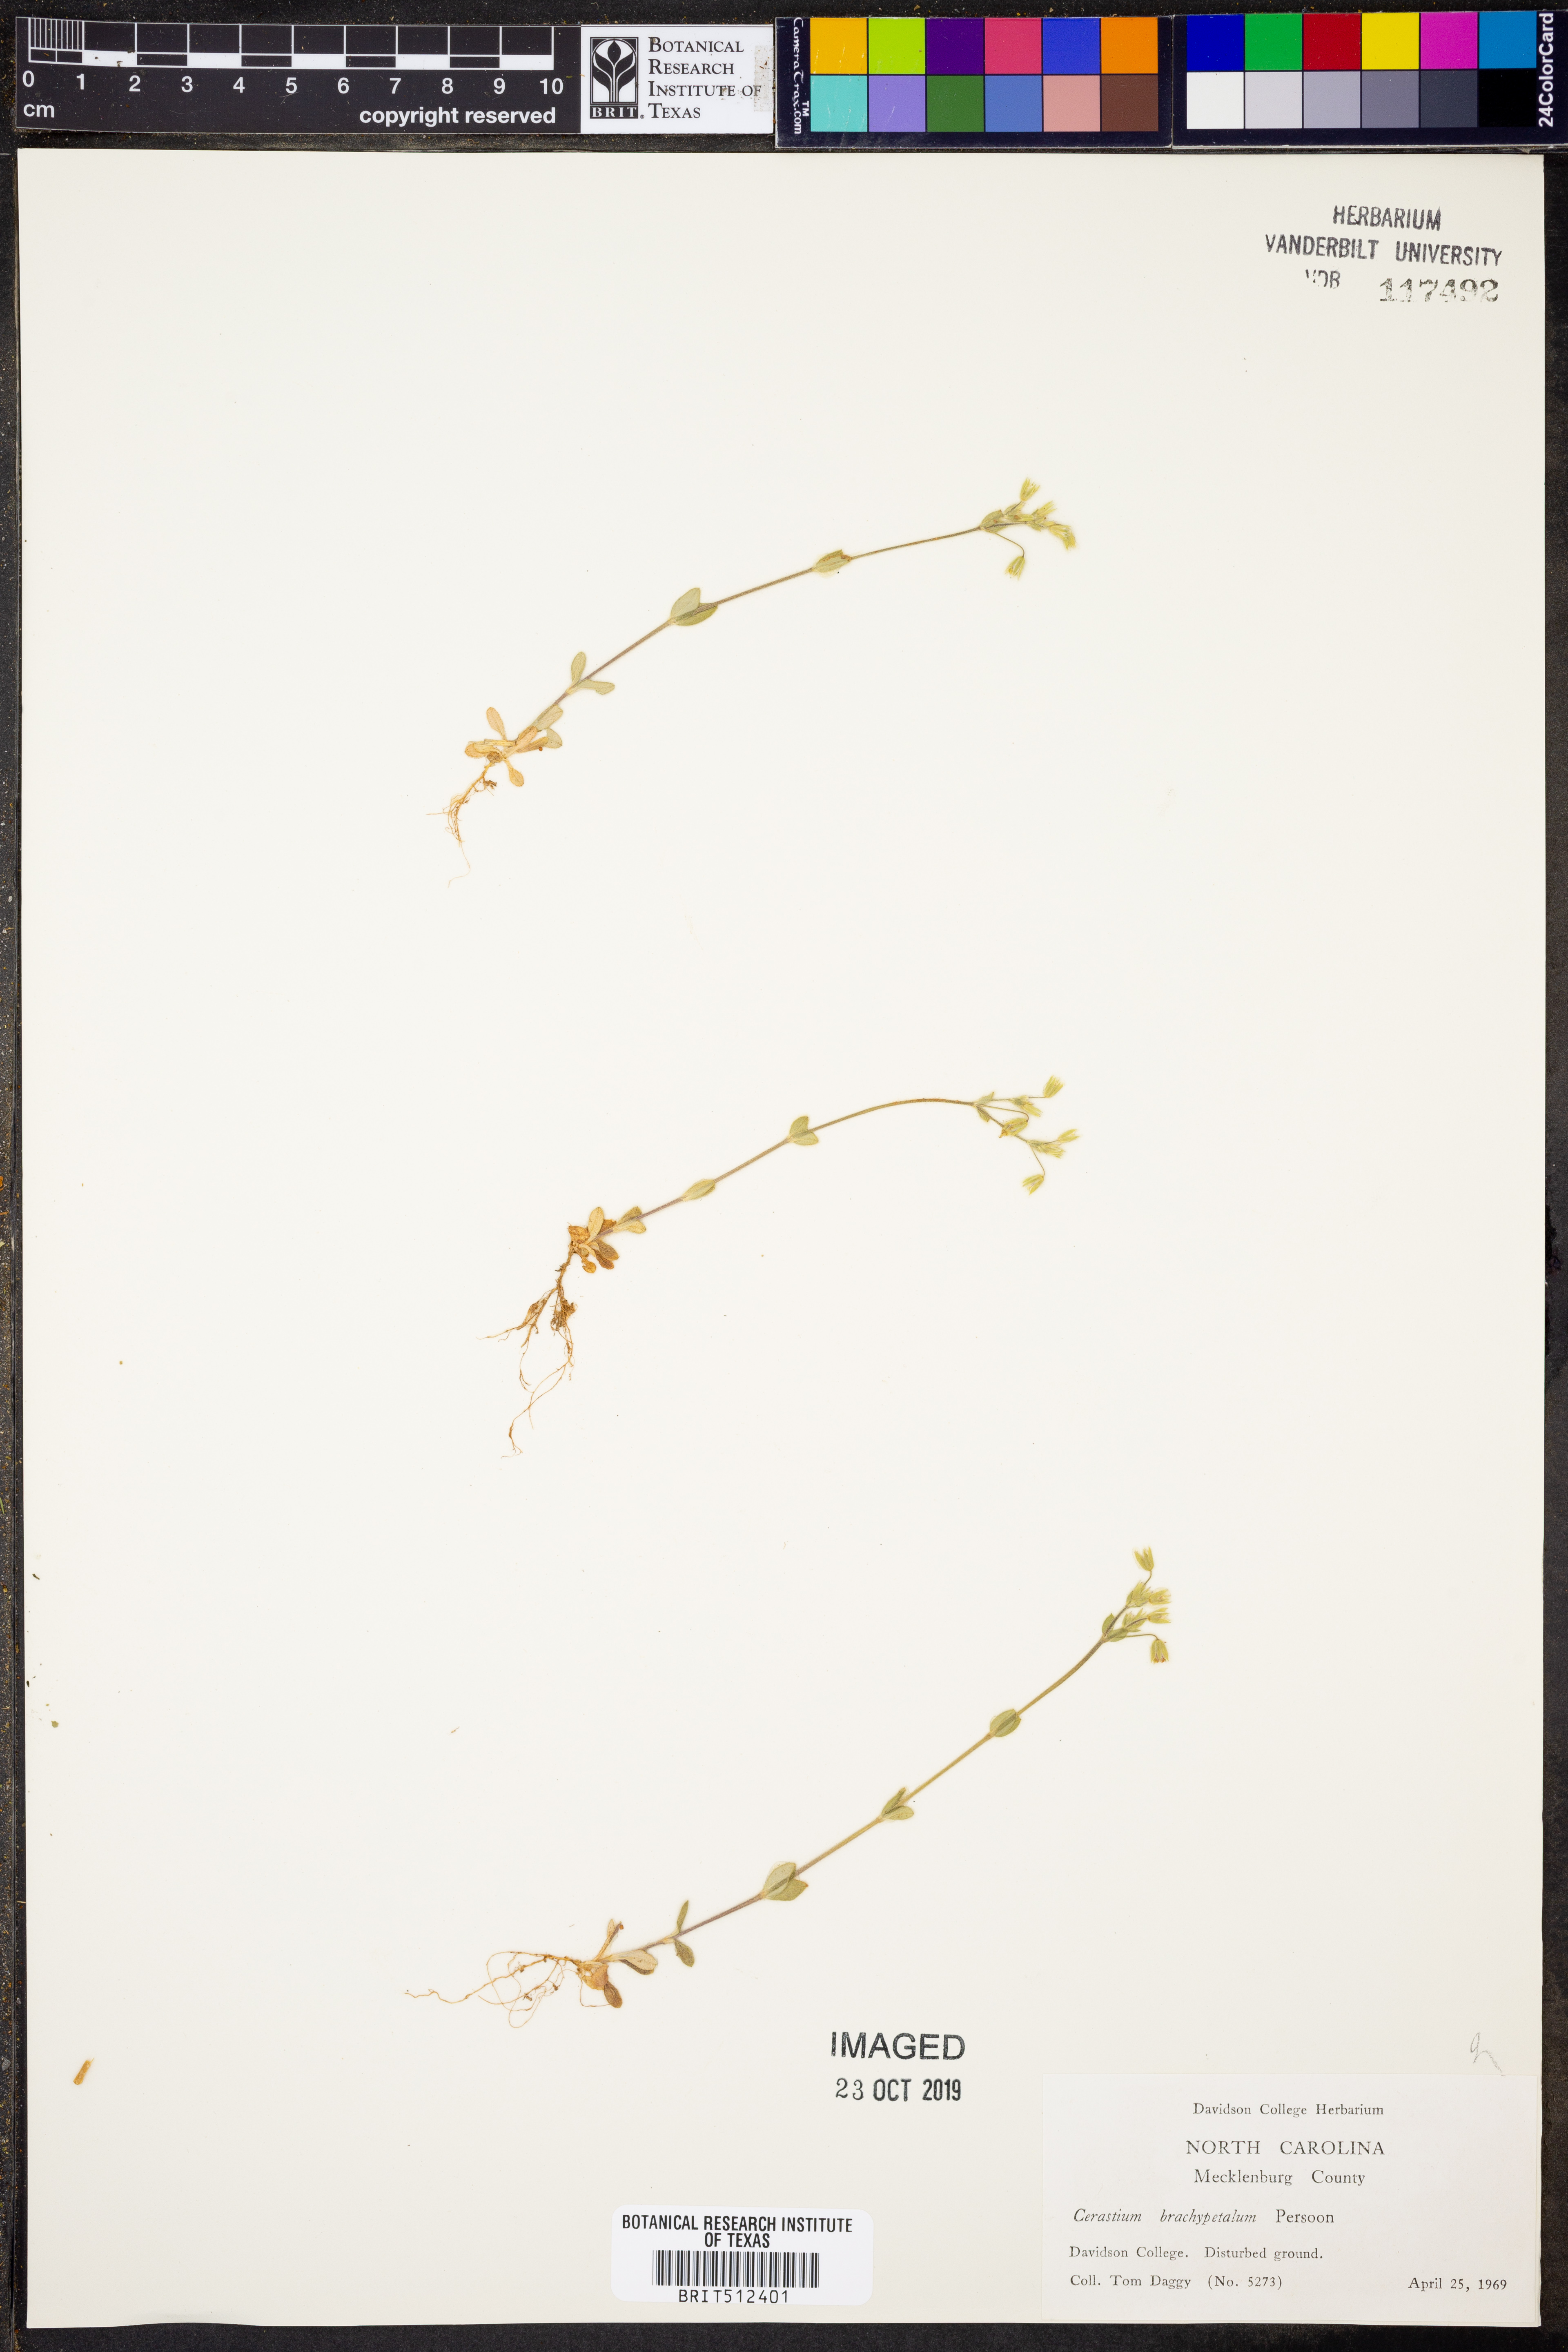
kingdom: Plantae
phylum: Tracheophyta
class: Magnoliopsida
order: Caryophyllales
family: Caryophyllaceae
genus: Cerastium
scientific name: Cerastium brachypetalum
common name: Grey mouse-ear
